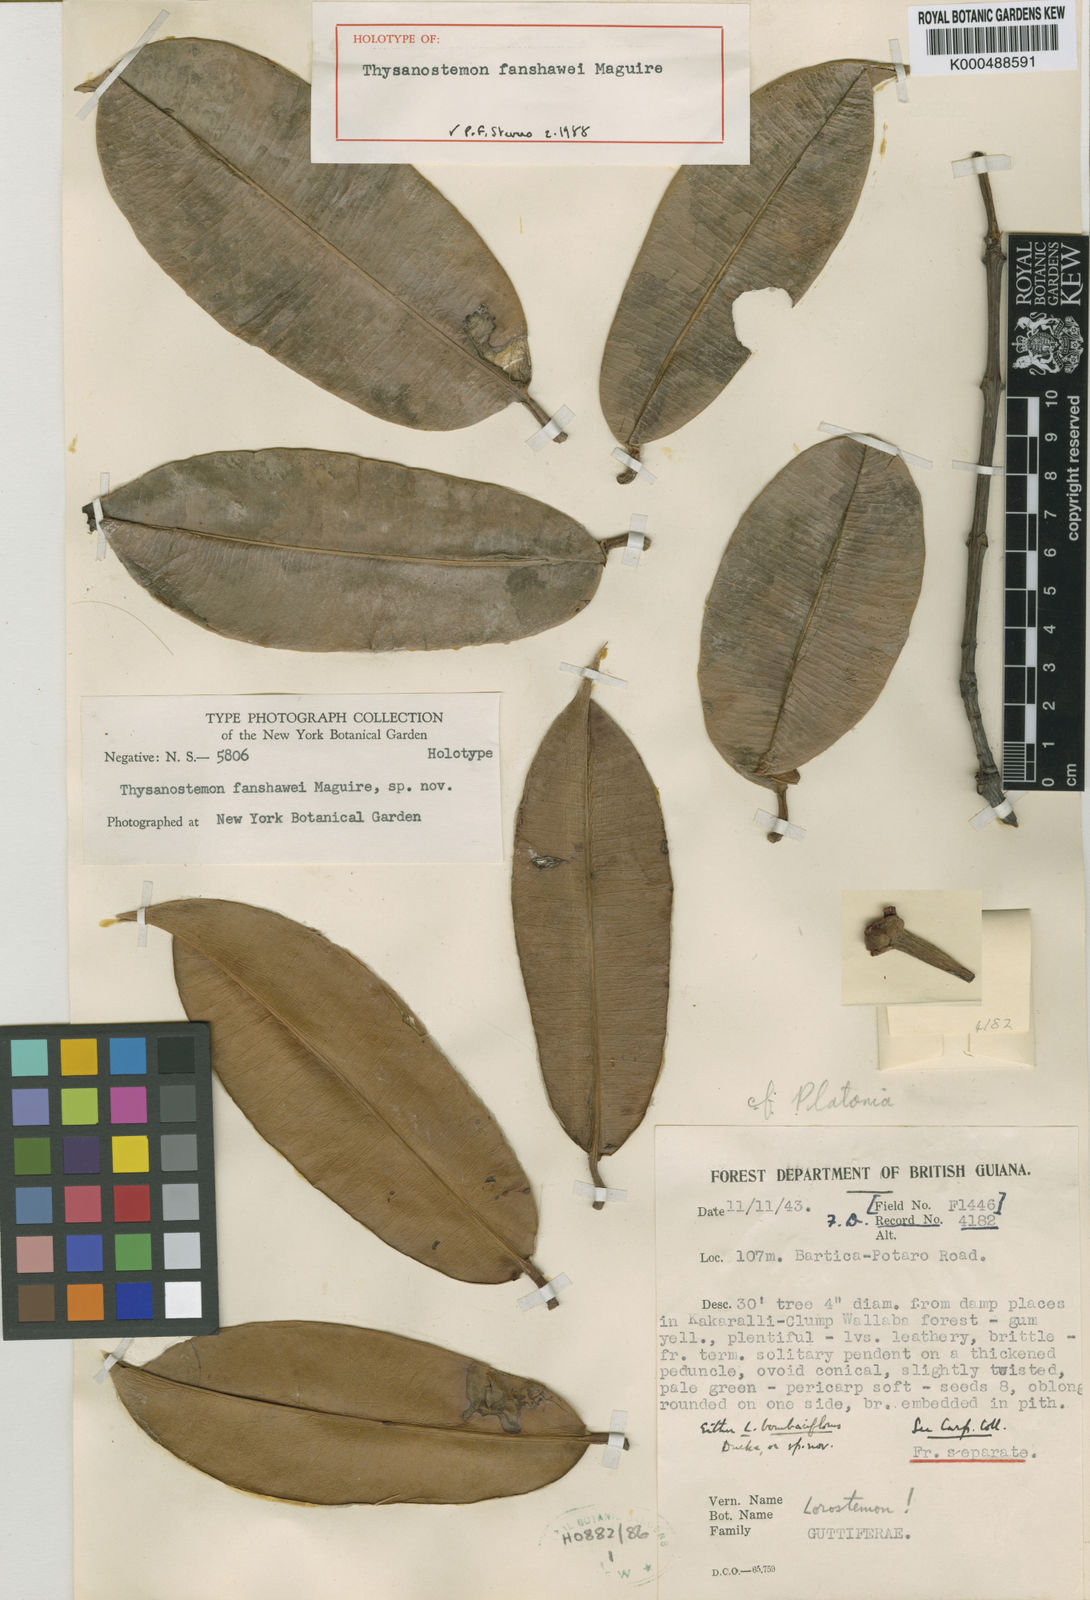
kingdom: Plantae
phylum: Tracheophyta
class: Magnoliopsida
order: Malpighiales
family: Clusiaceae
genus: Thysanostemon
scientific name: Thysanostemon fanshawei
